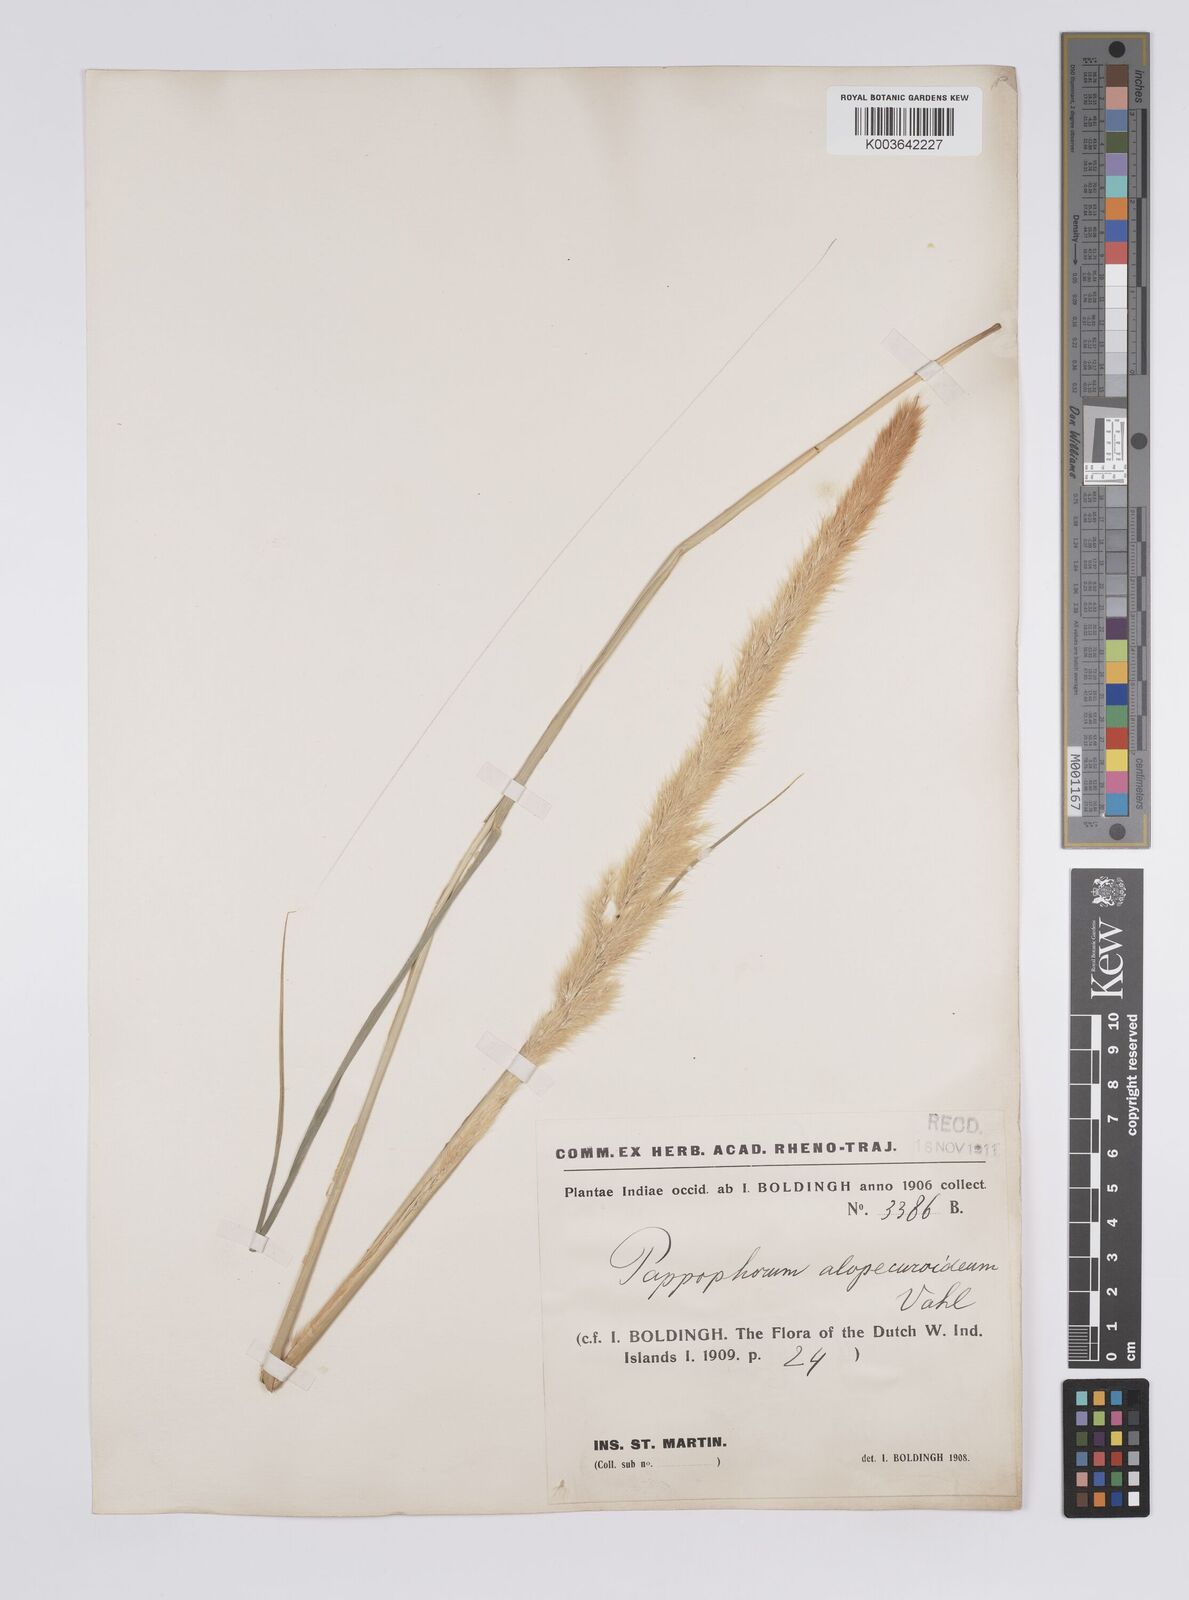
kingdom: Plantae
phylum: Tracheophyta
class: Liliopsida
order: Poales
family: Poaceae
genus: Pappophorum
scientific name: Pappophorum pappiferum
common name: Crabgrass
